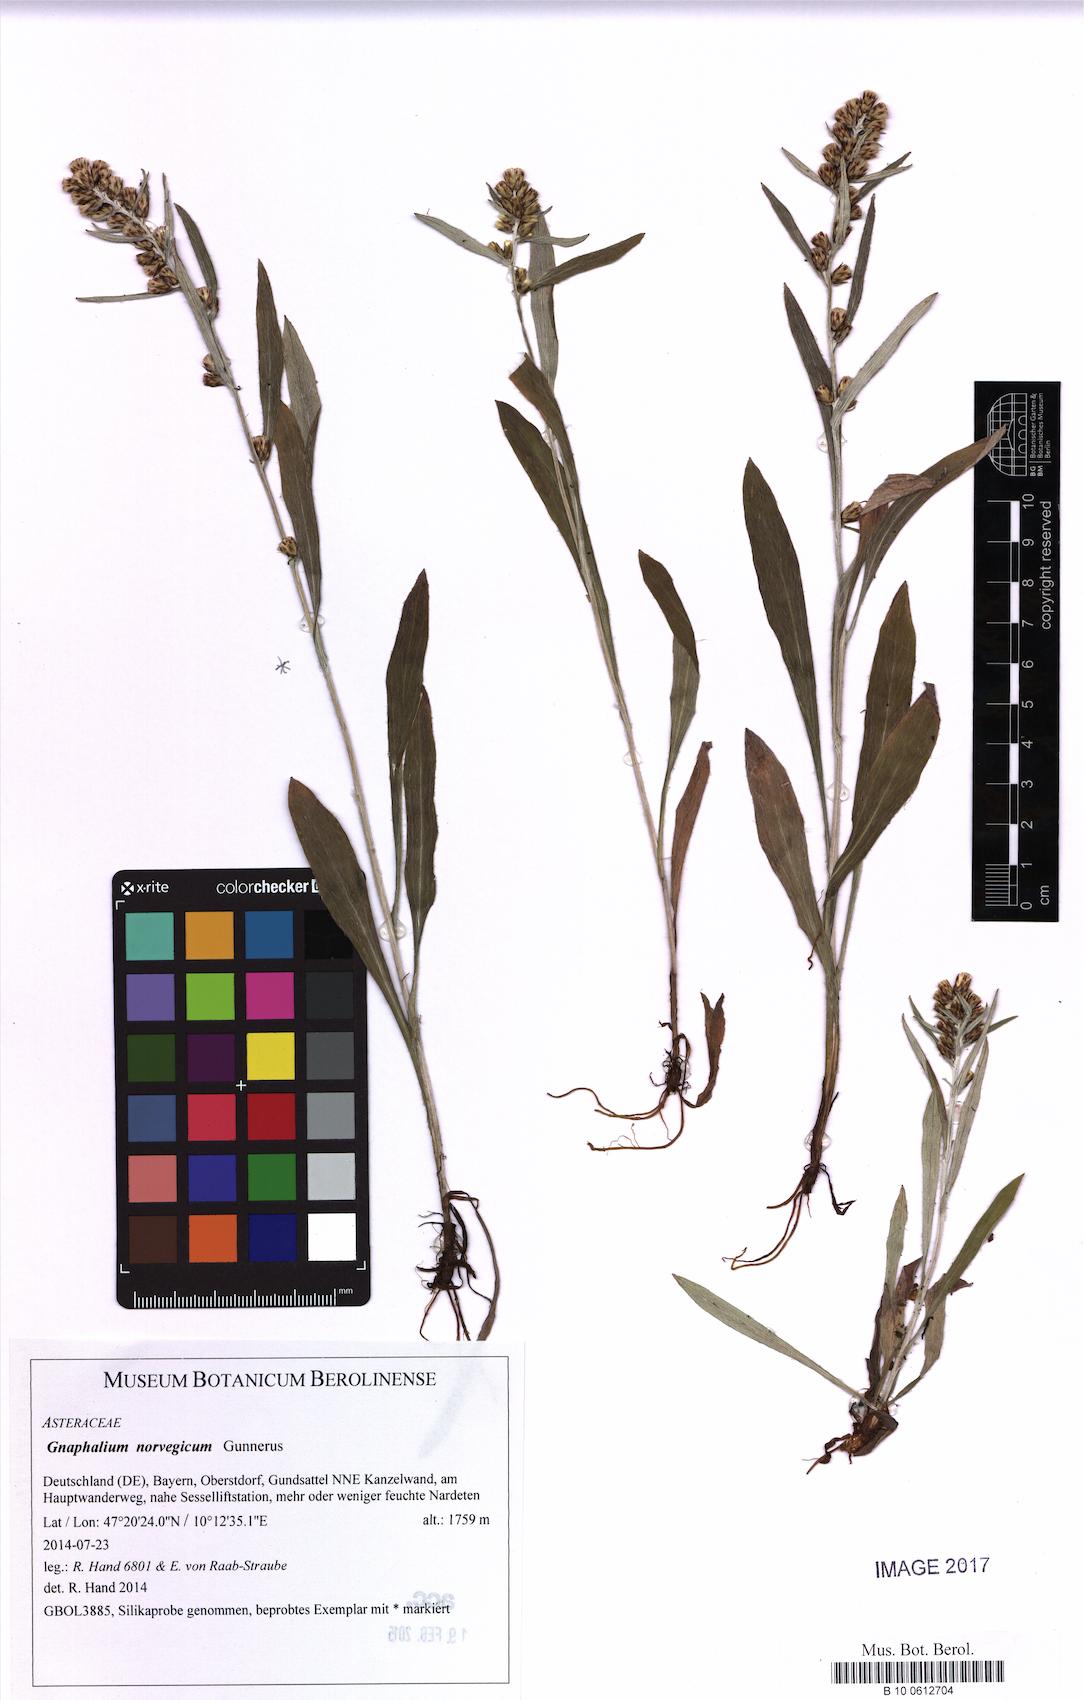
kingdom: Plantae
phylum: Tracheophyta
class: Magnoliopsida
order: Asterales
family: Asteraceae
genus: Omalotheca
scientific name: Omalotheca norvegica
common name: Norwegian arctic-cudweed
